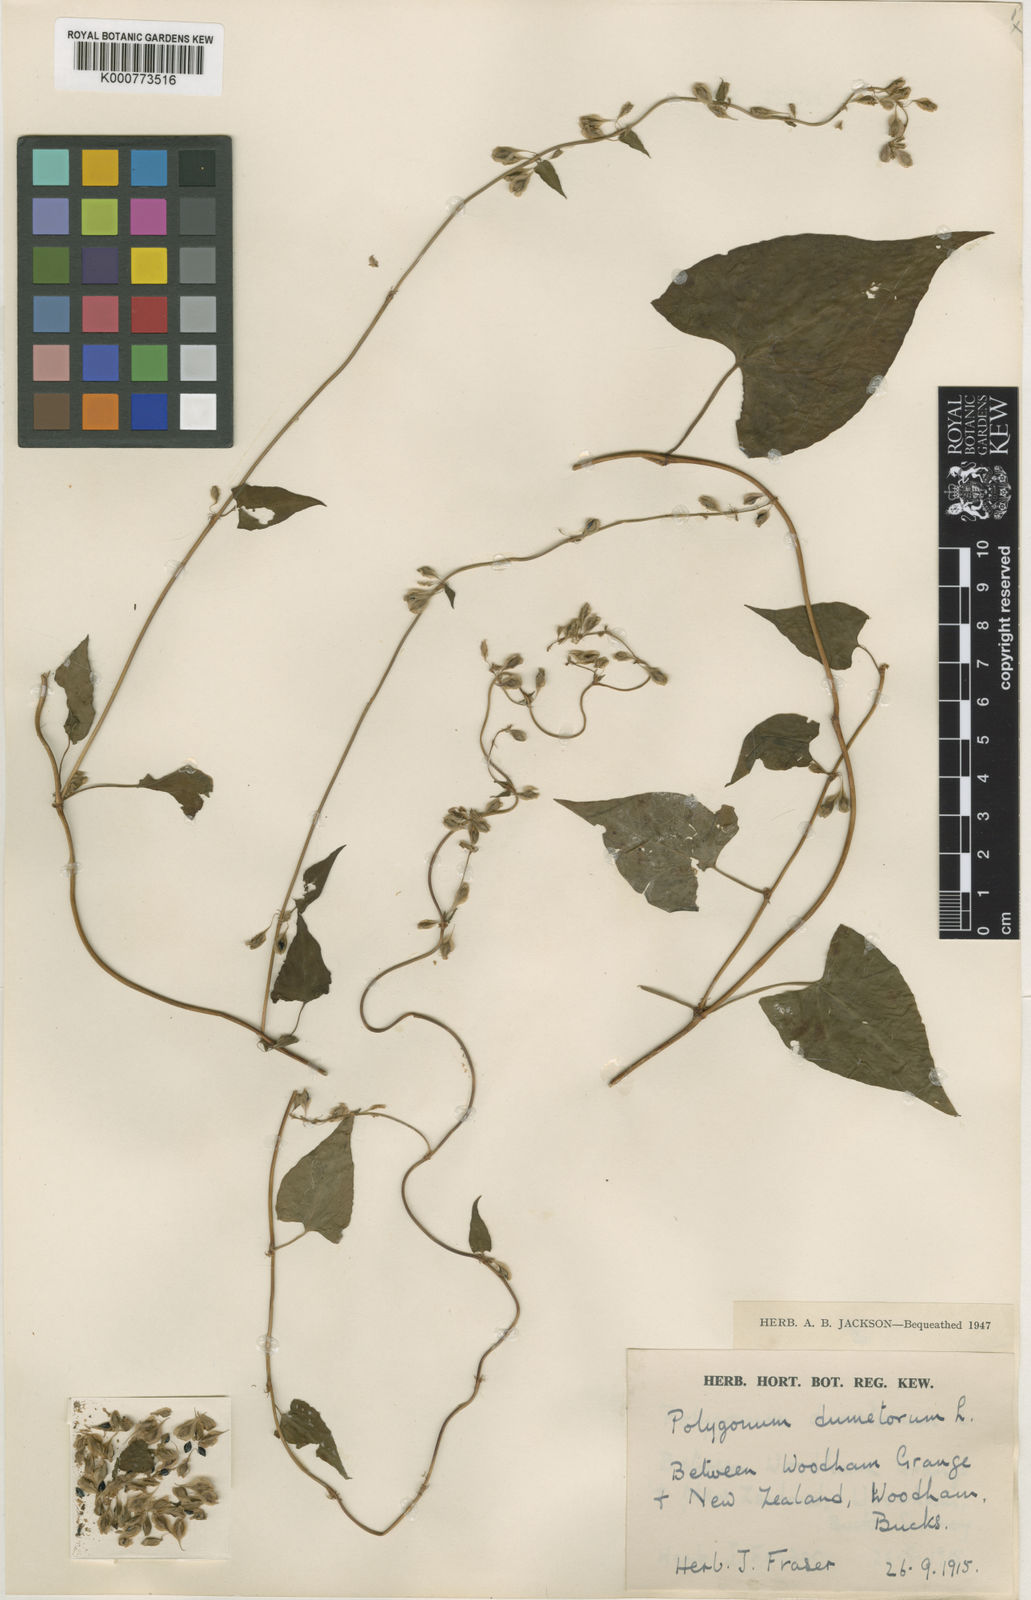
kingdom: Plantae
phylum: Tracheophyta
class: Magnoliopsida
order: Caryophyllales
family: Polygonaceae
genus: Fallopia
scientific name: Fallopia dumetorum
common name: Copse-bindweed
